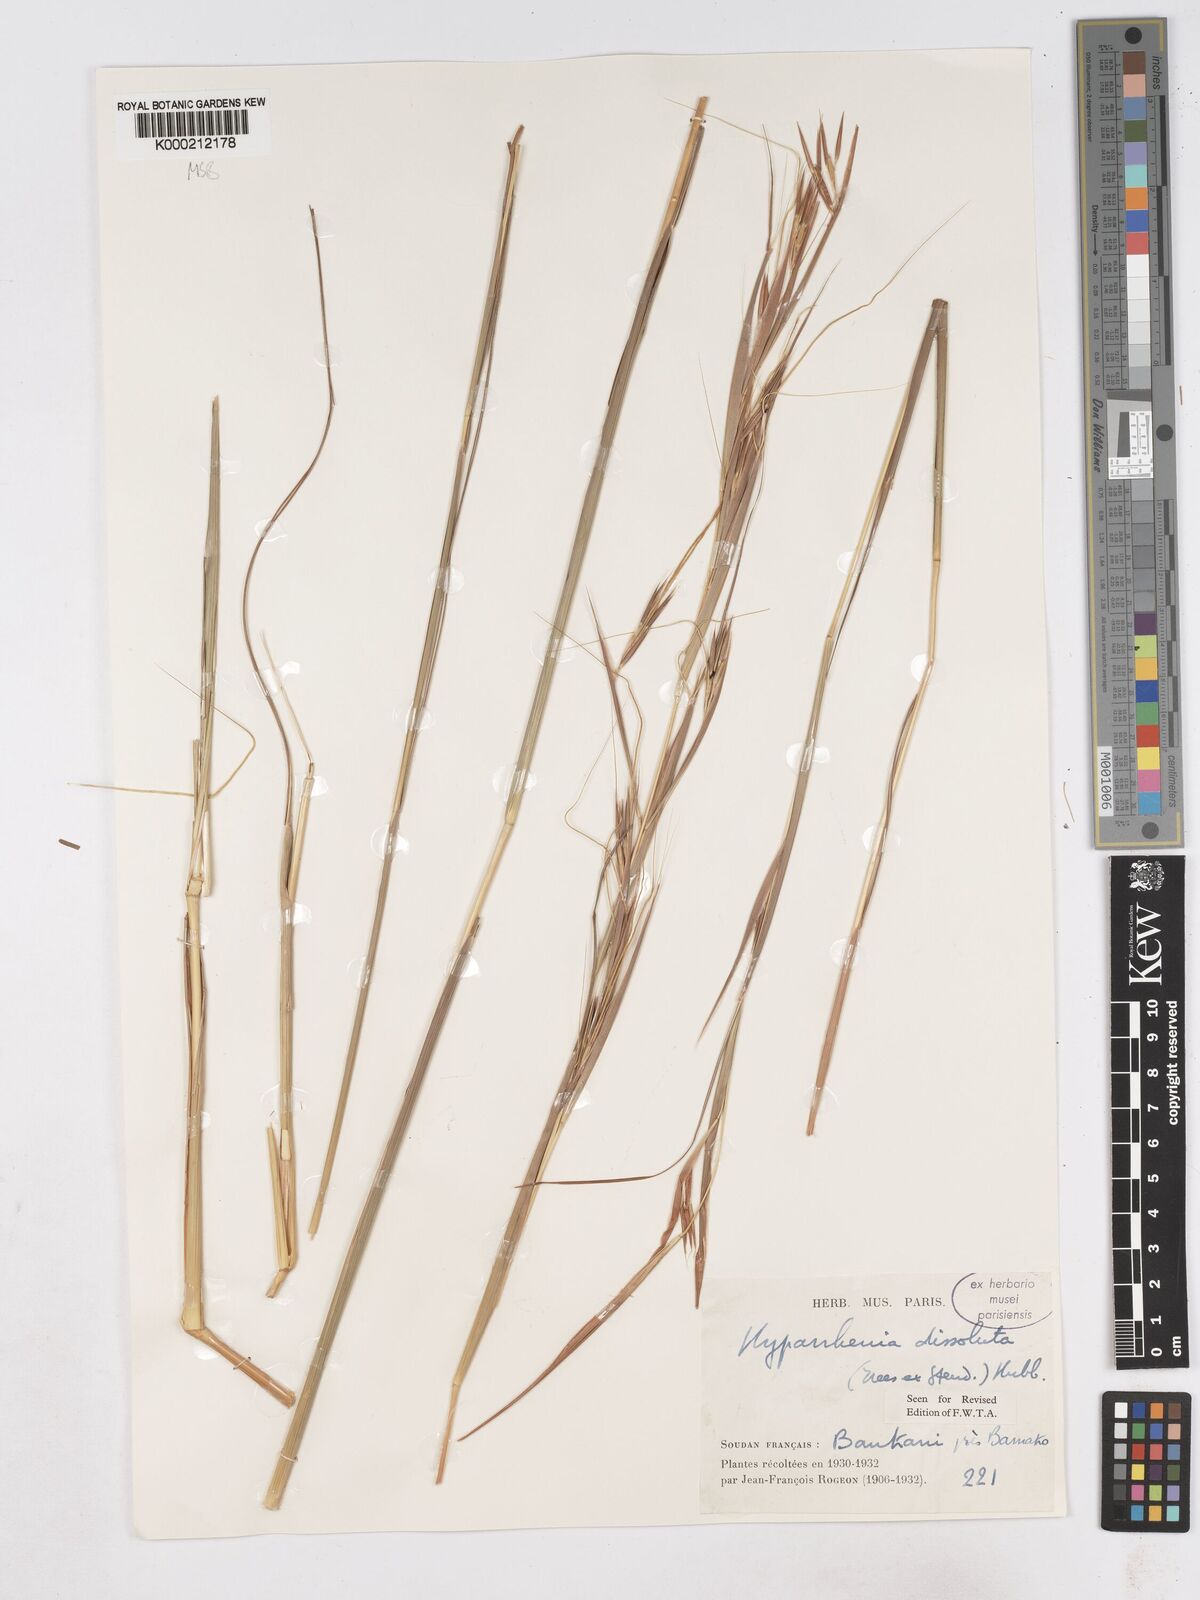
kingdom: Plantae
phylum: Tracheophyta
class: Liliopsida
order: Poales
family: Poaceae
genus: Hyperthelia
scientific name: Hyperthelia dissoluta
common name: Yellow thatching grass
